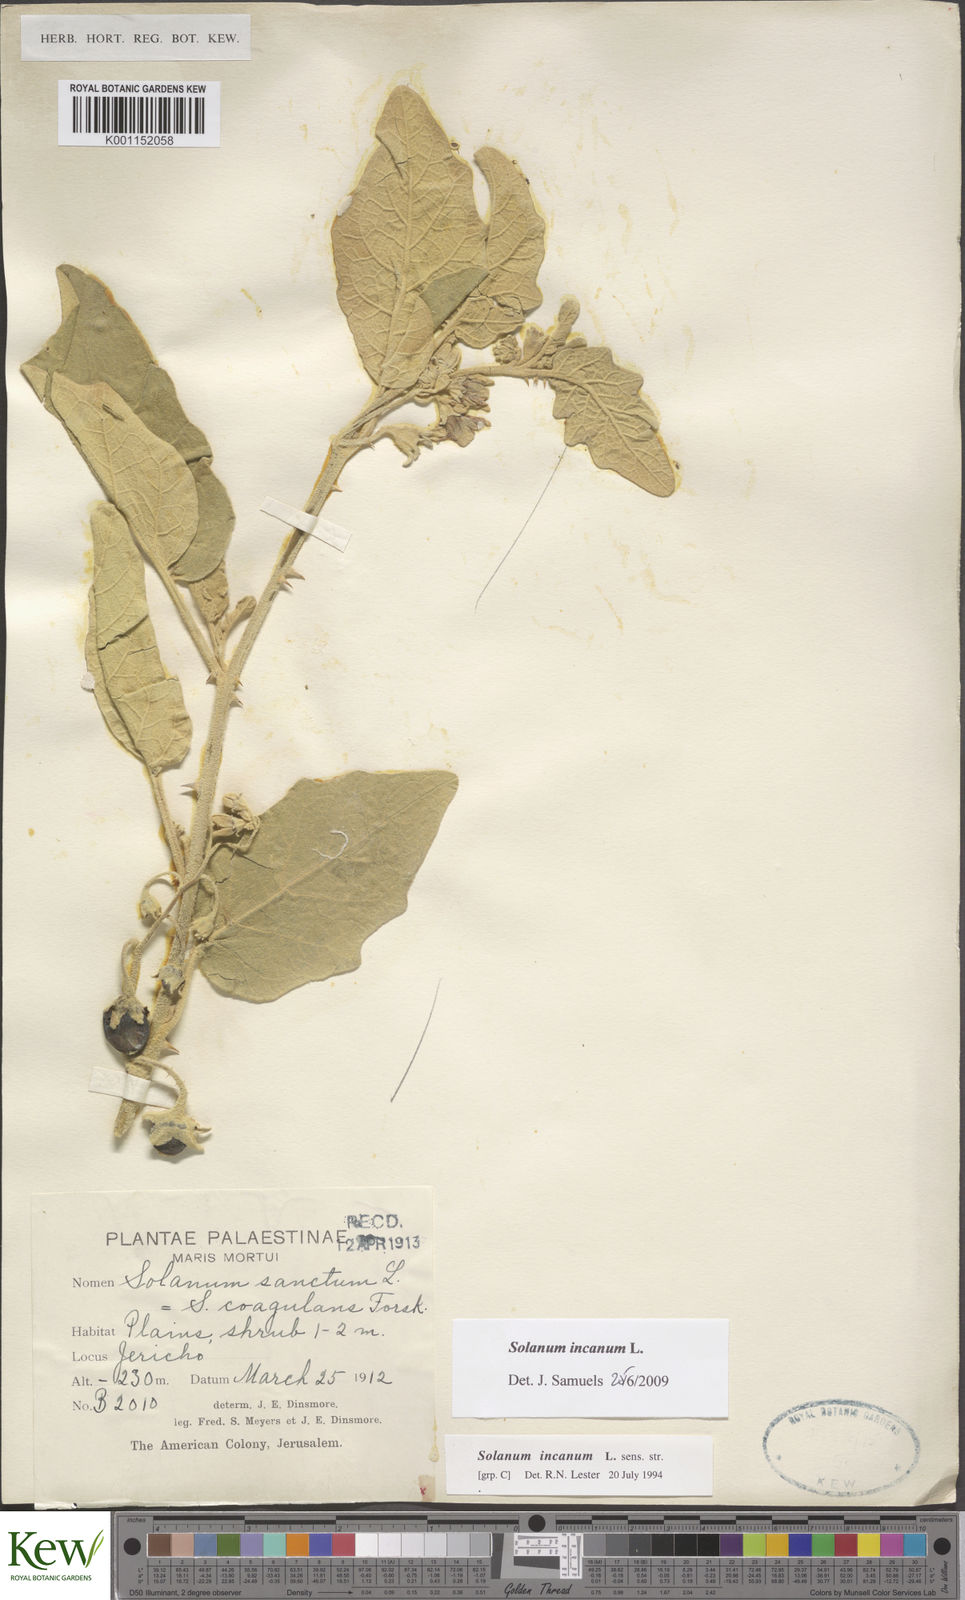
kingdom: Plantae
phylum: Tracheophyta
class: Magnoliopsida
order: Solanales
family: Solanaceae
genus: Solanum
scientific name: Solanum incanum
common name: Bitter apple
